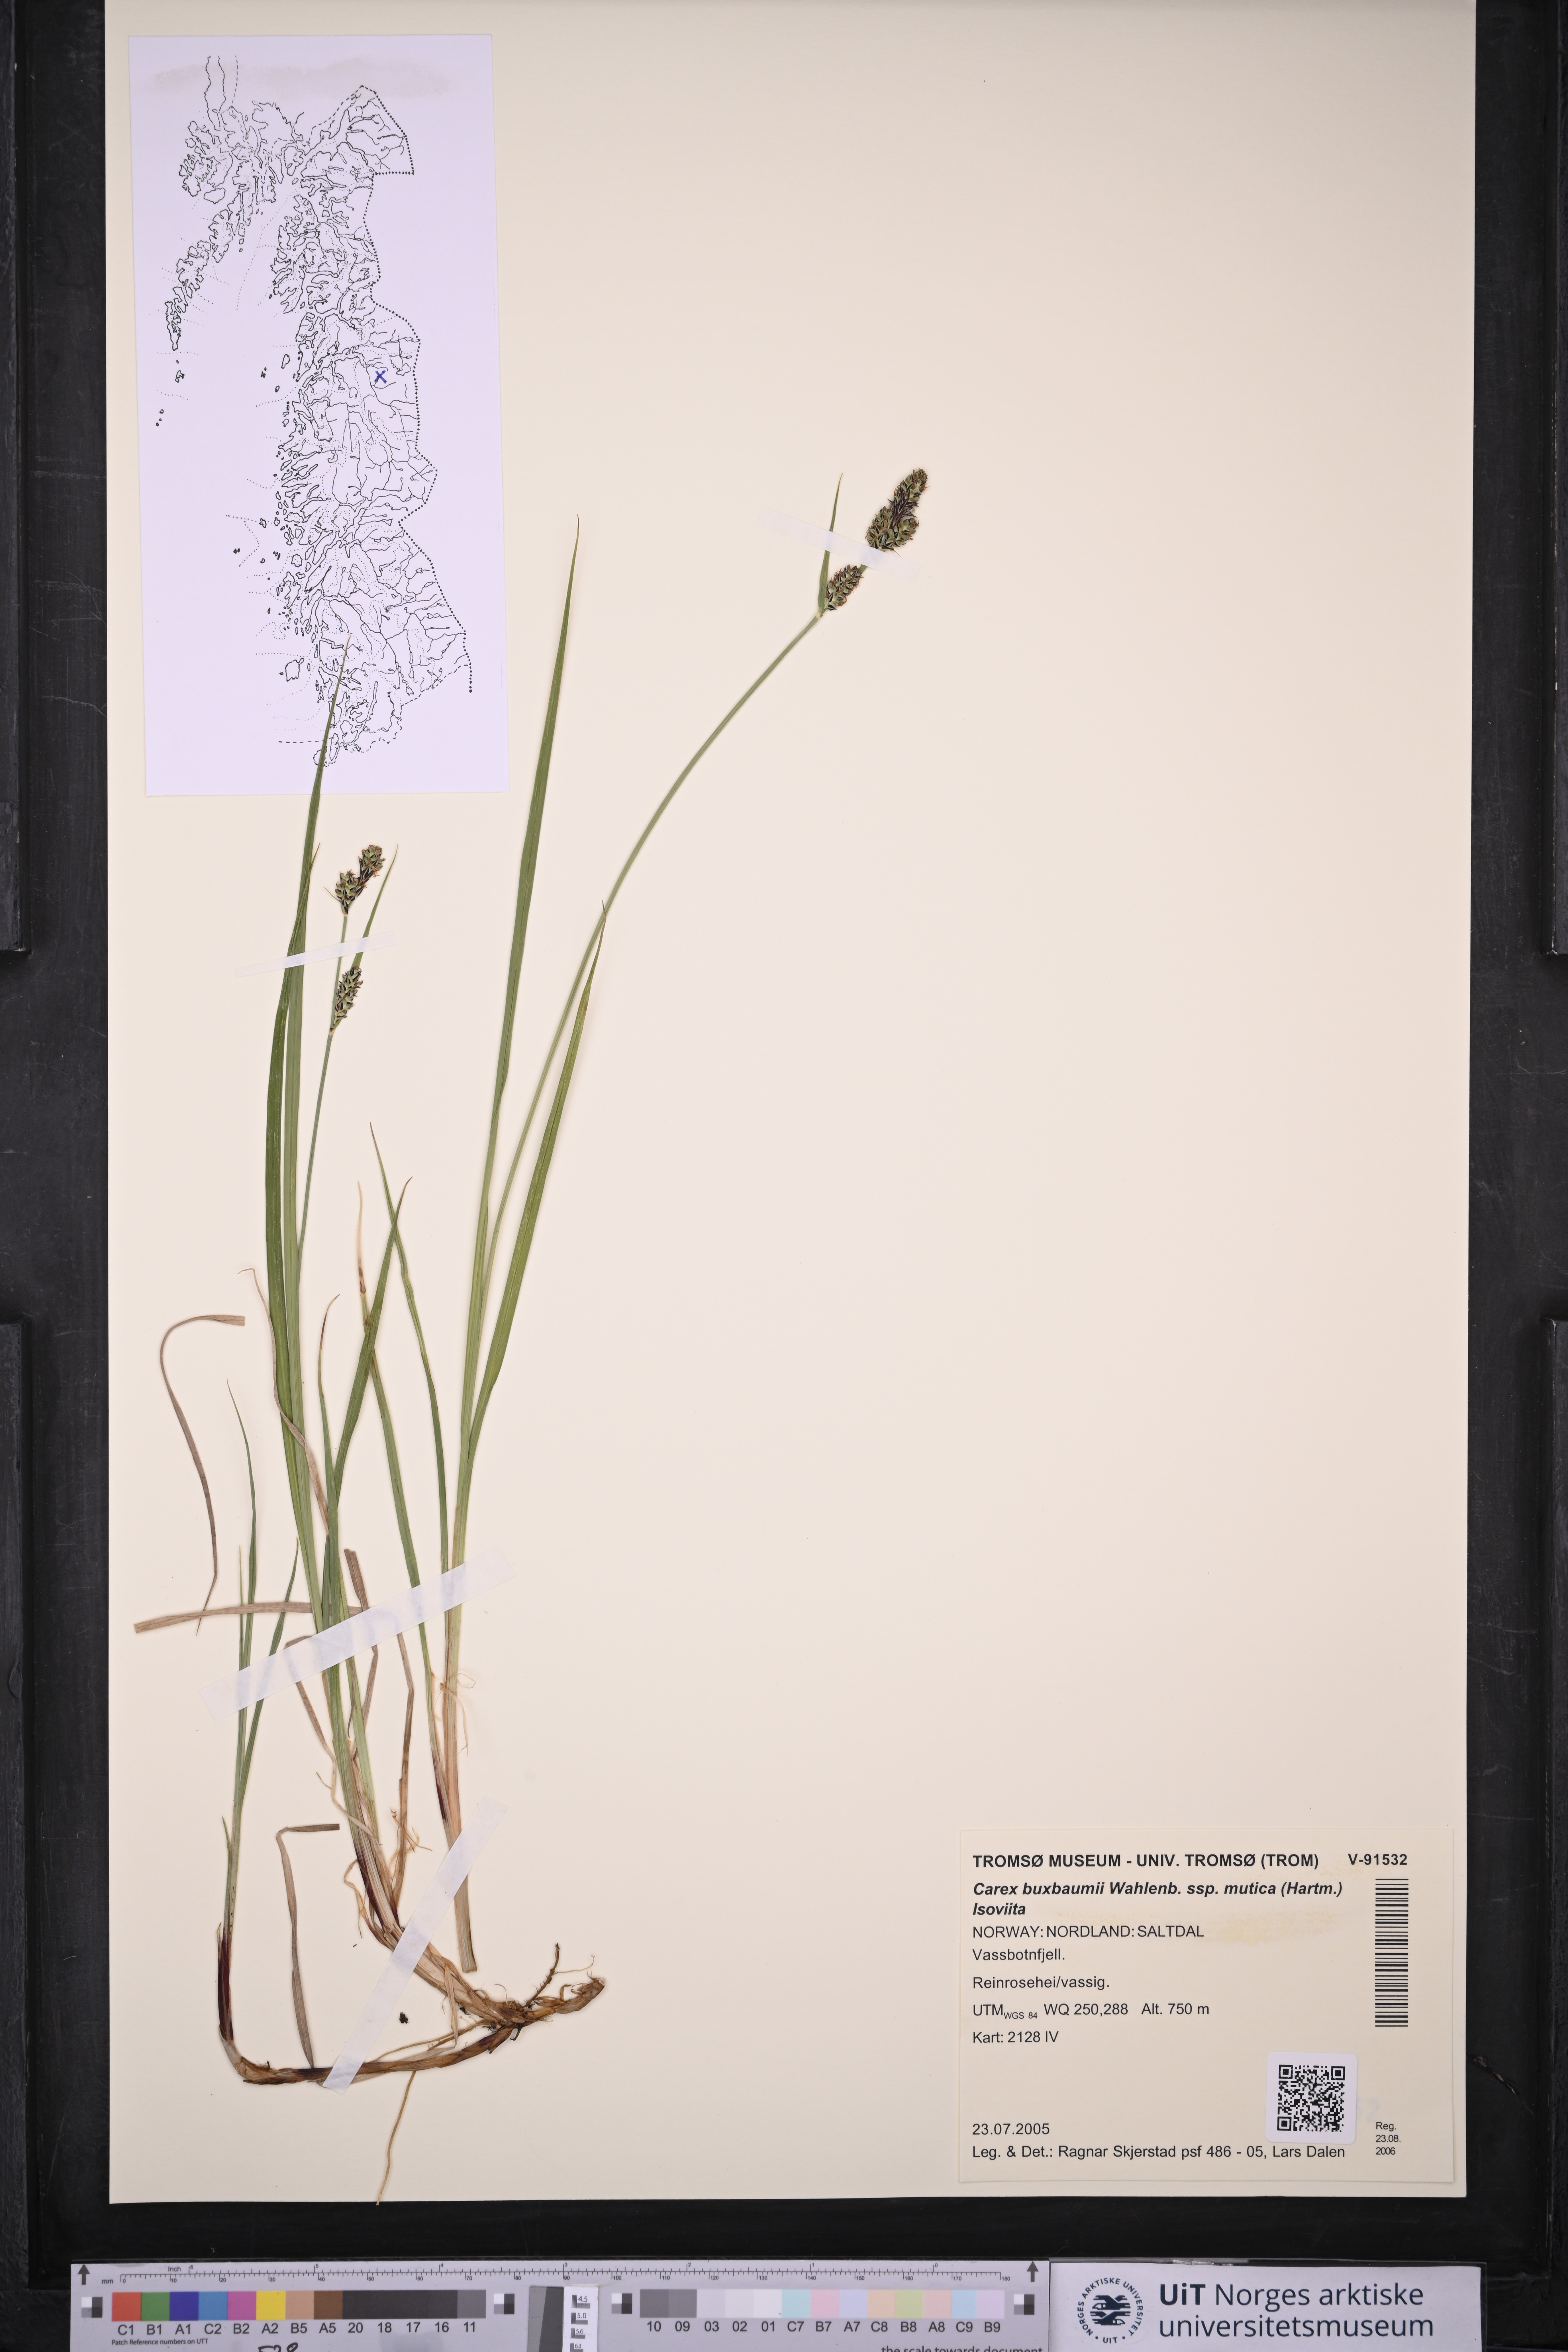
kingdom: Plantae
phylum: Tracheophyta
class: Liliopsida
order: Poales
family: Cyperaceae
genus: Carex
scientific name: Carex adelostoma
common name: Circumpolar sedge
